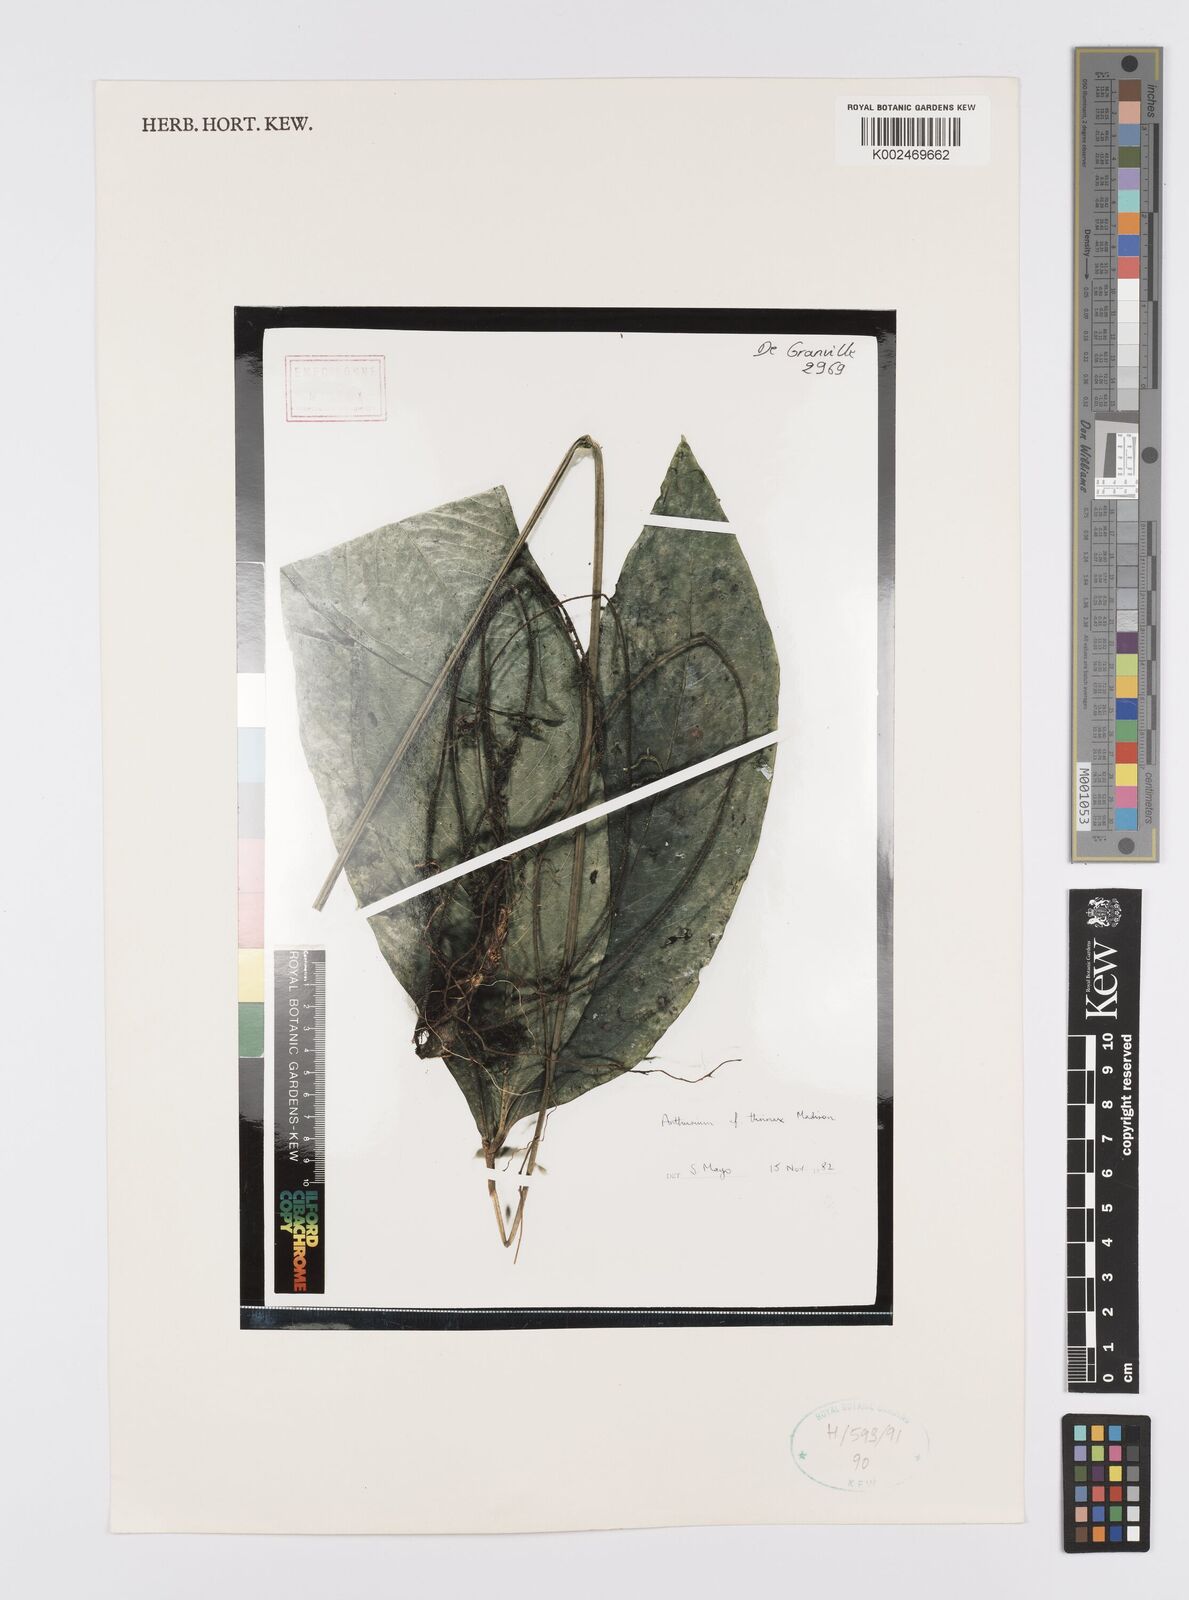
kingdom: Plantae
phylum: Tracheophyta
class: Liliopsida
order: Alismatales
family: Araceae
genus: Anthurium
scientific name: Anthurium thrinax
